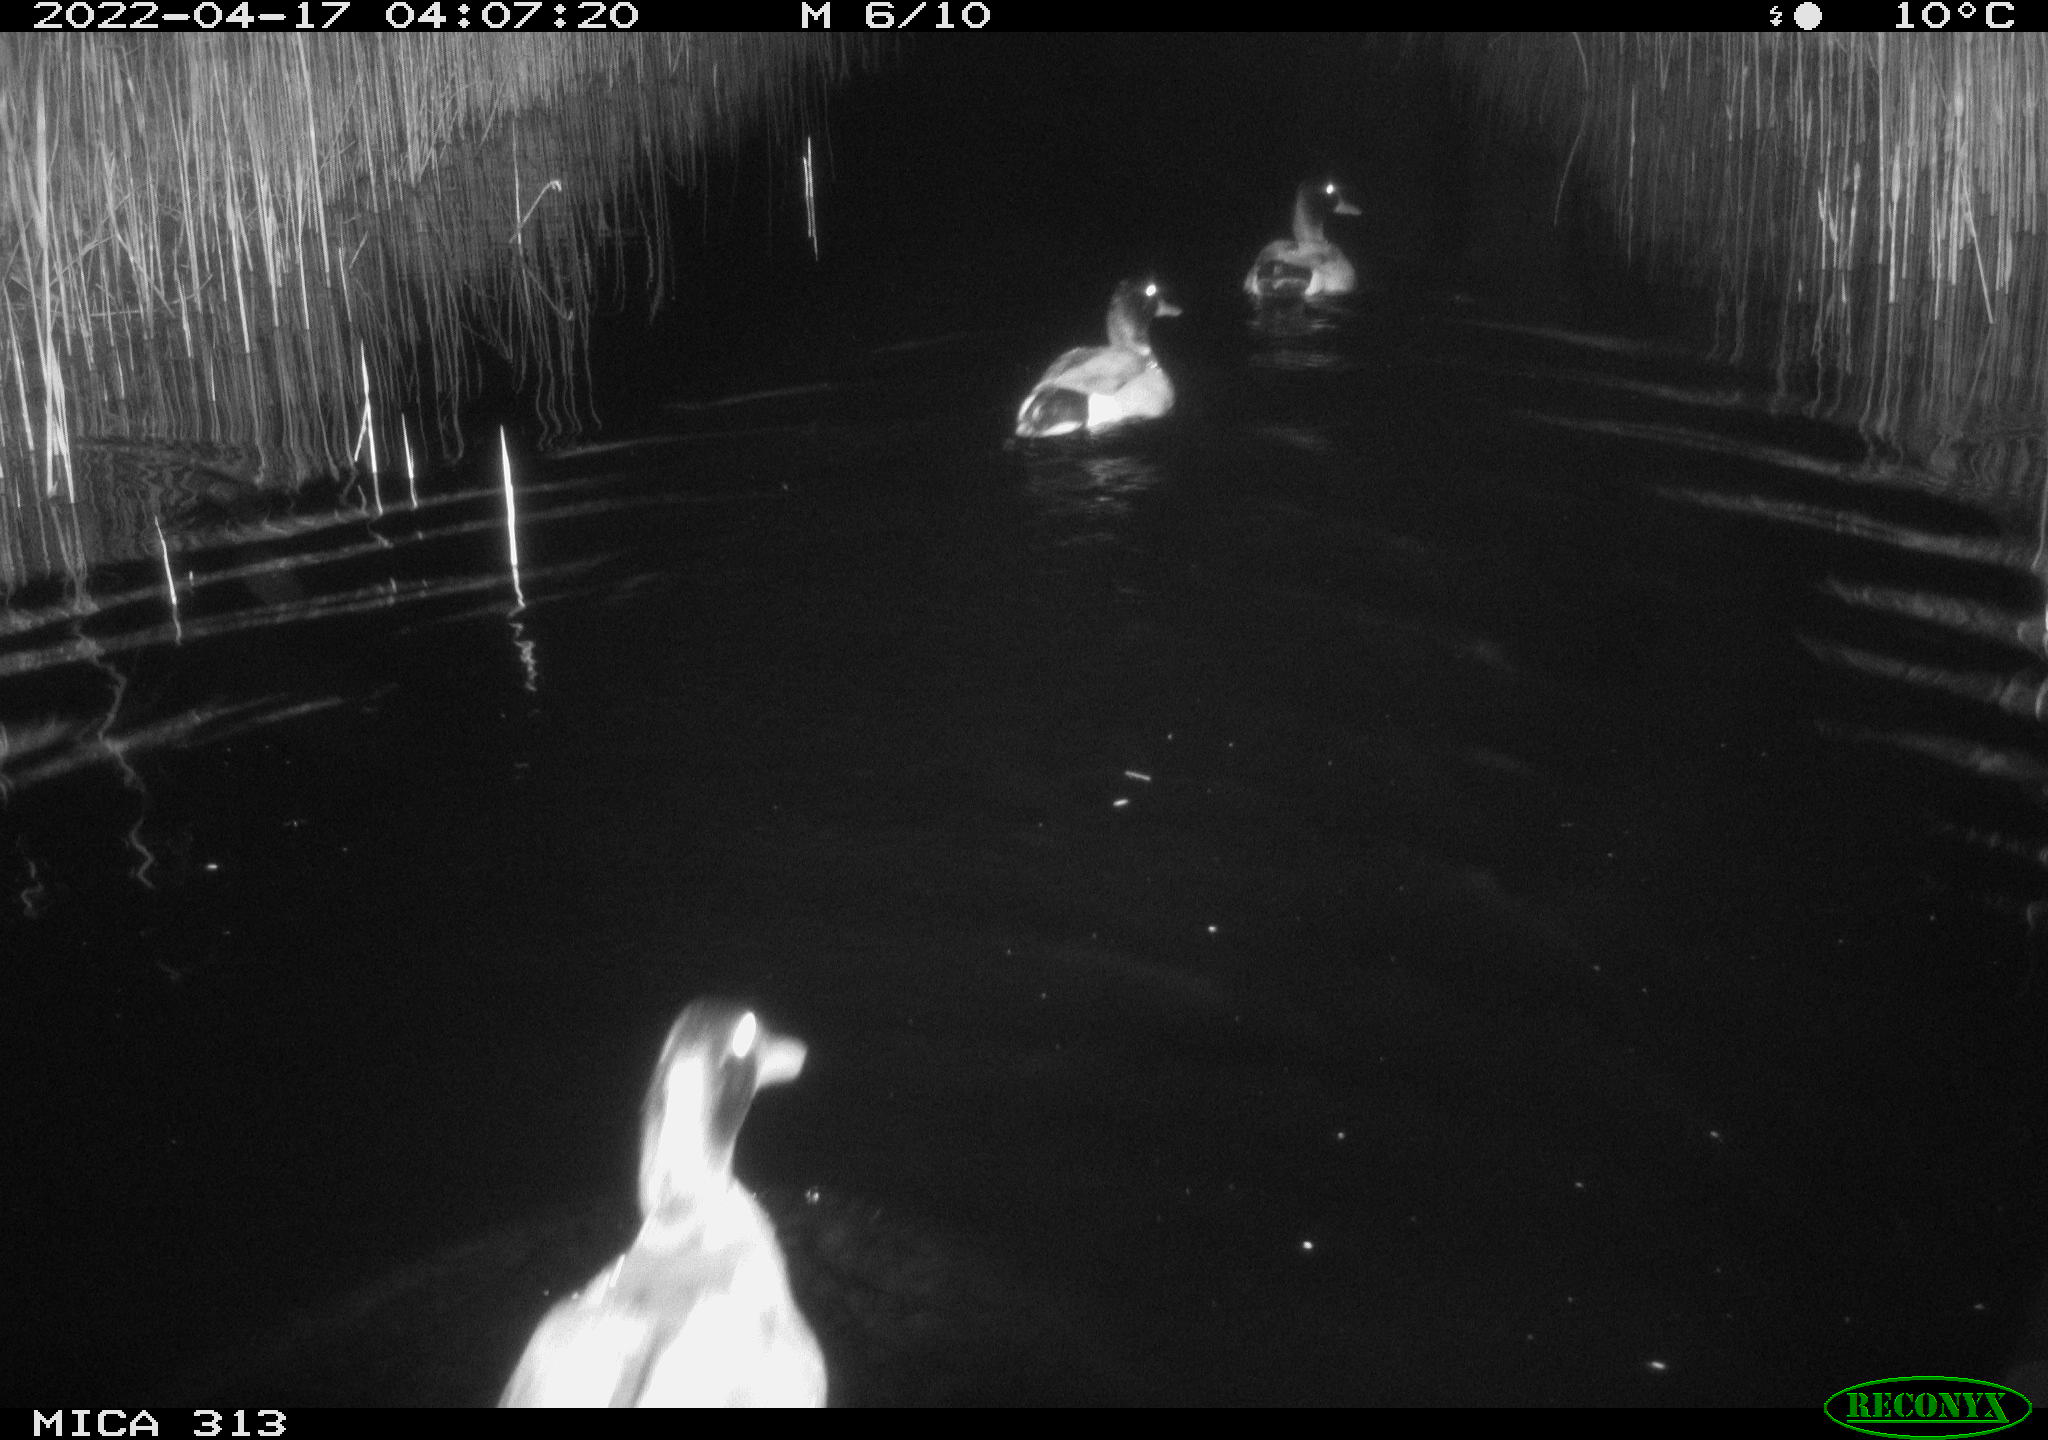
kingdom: Animalia
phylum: Chordata
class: Aves
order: Anseriformes
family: Anatidae
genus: Anas
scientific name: Anas platyrhynchos
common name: Mallard
